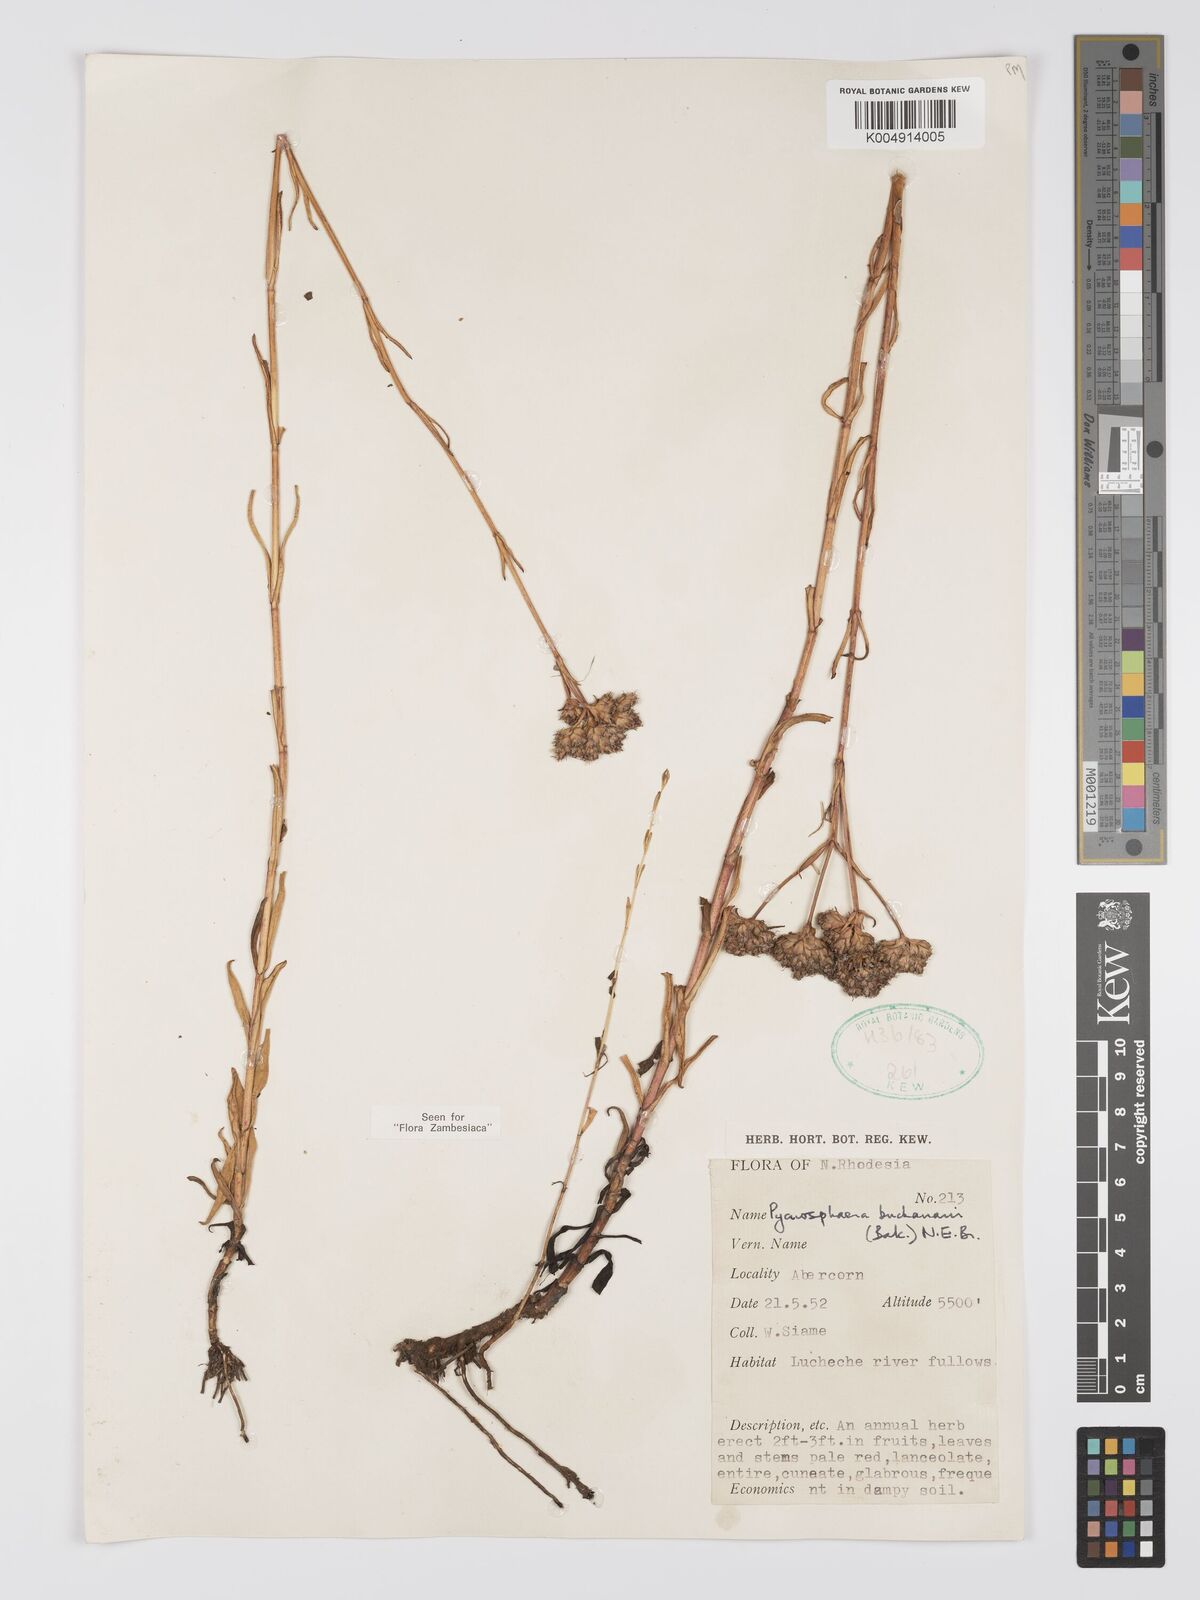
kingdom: Plantae
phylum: Tracheophyta
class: Magnoliopsida
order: Gentianales
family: Gentianaceae
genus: Pycnosphaera
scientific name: Pycnosphaera buchananii
